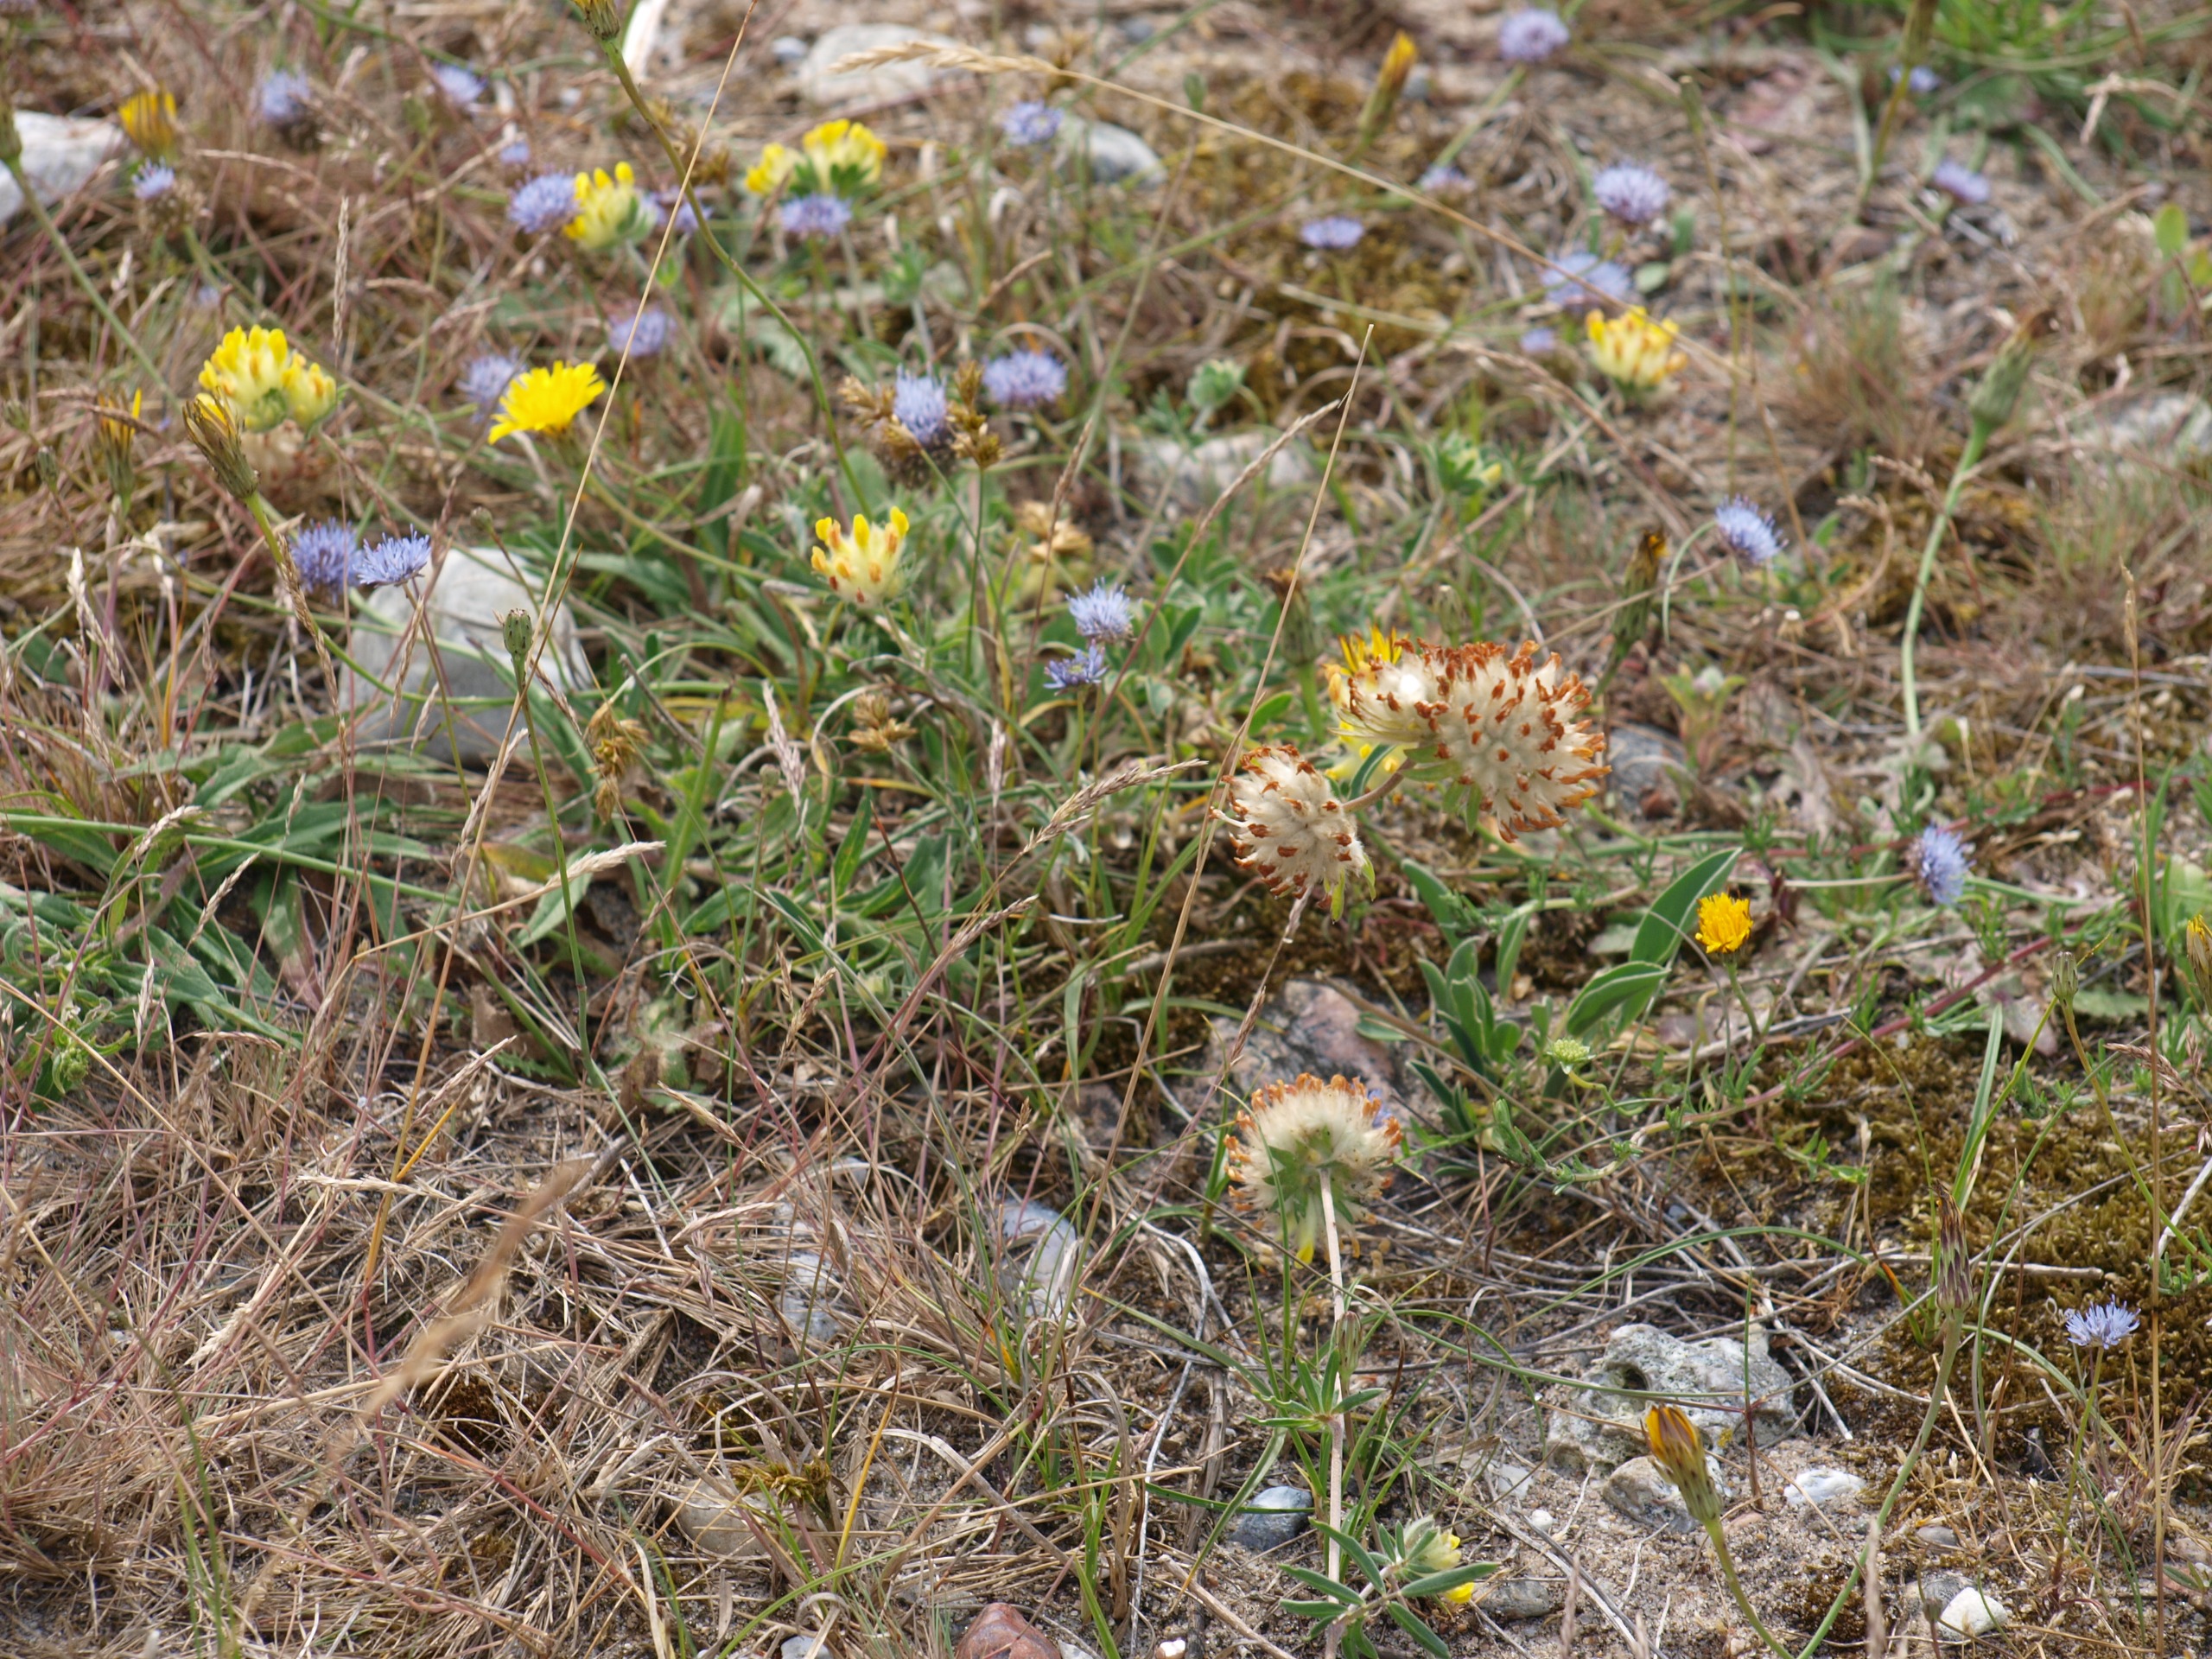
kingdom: Plantae
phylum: Tracheophyta
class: Magnoliopsida
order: Fabales
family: Fabaceae
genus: Anthyllis
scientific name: Anthyllis vulneraria
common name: Rundbælg
